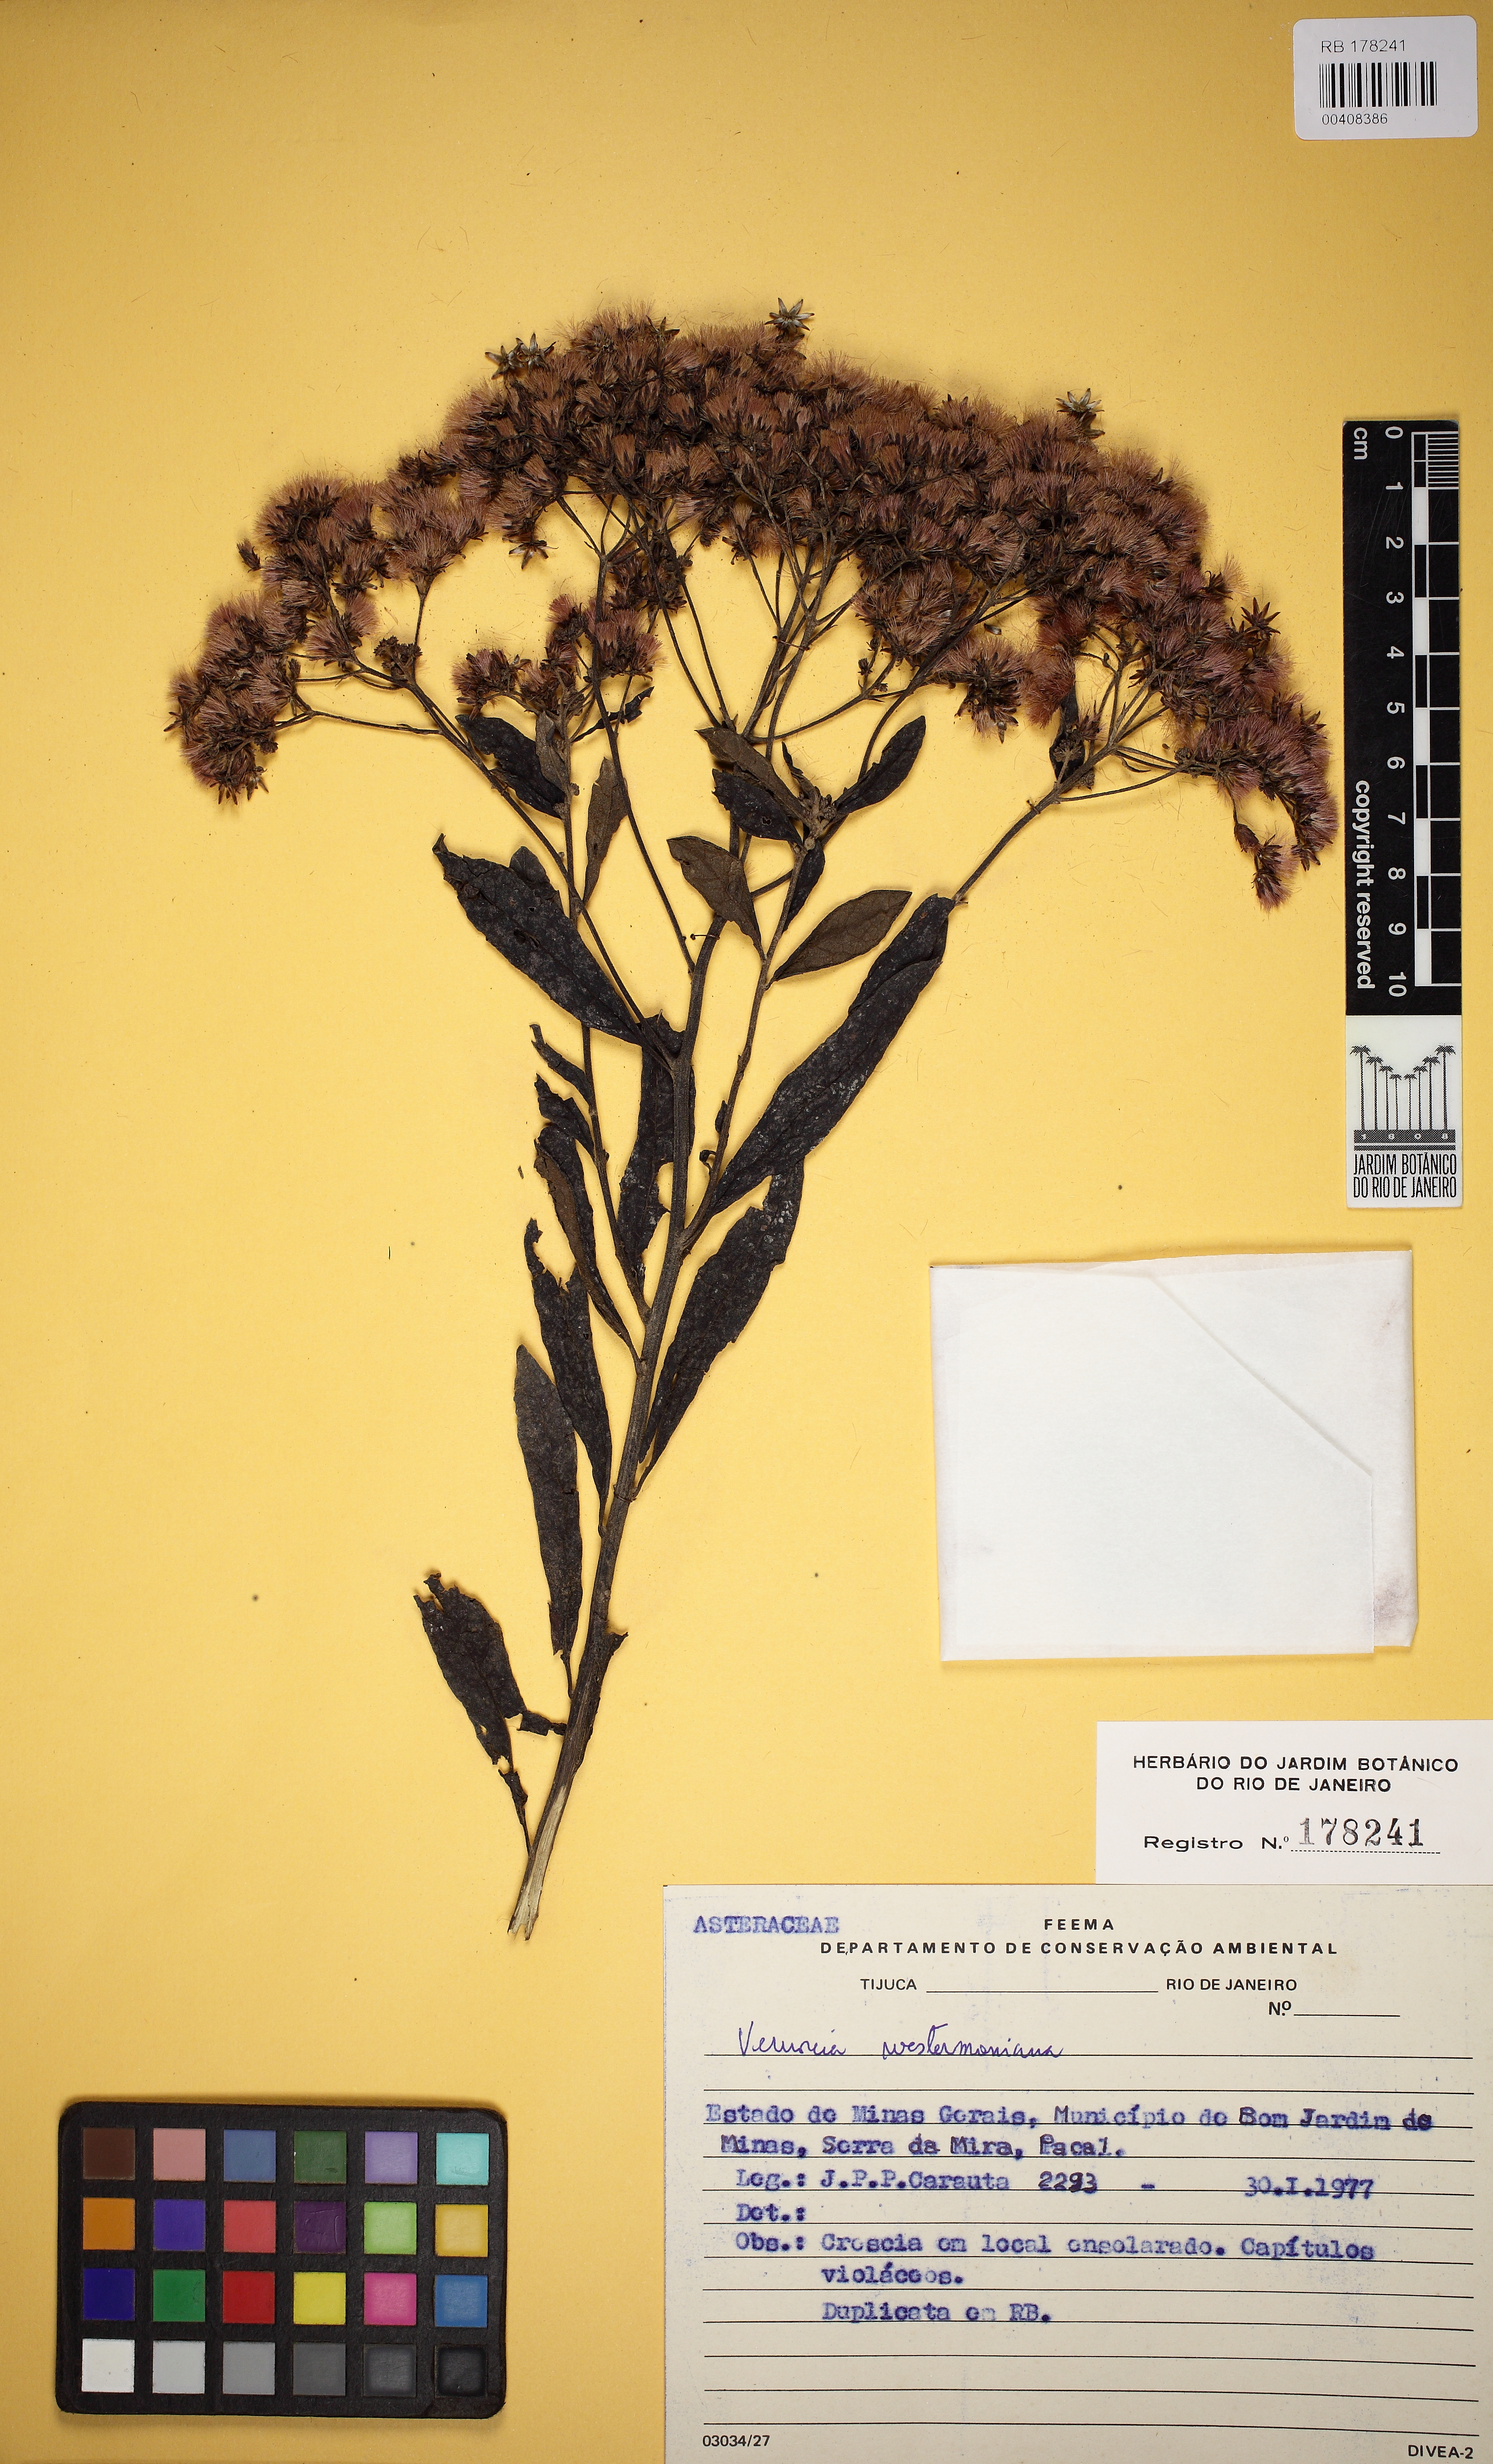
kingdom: Plantae
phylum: Tracheophyta
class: Magnoliopsida
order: Asterales
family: Asteraceae
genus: Vernonanthura
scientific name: Vernonanthura westiniana
